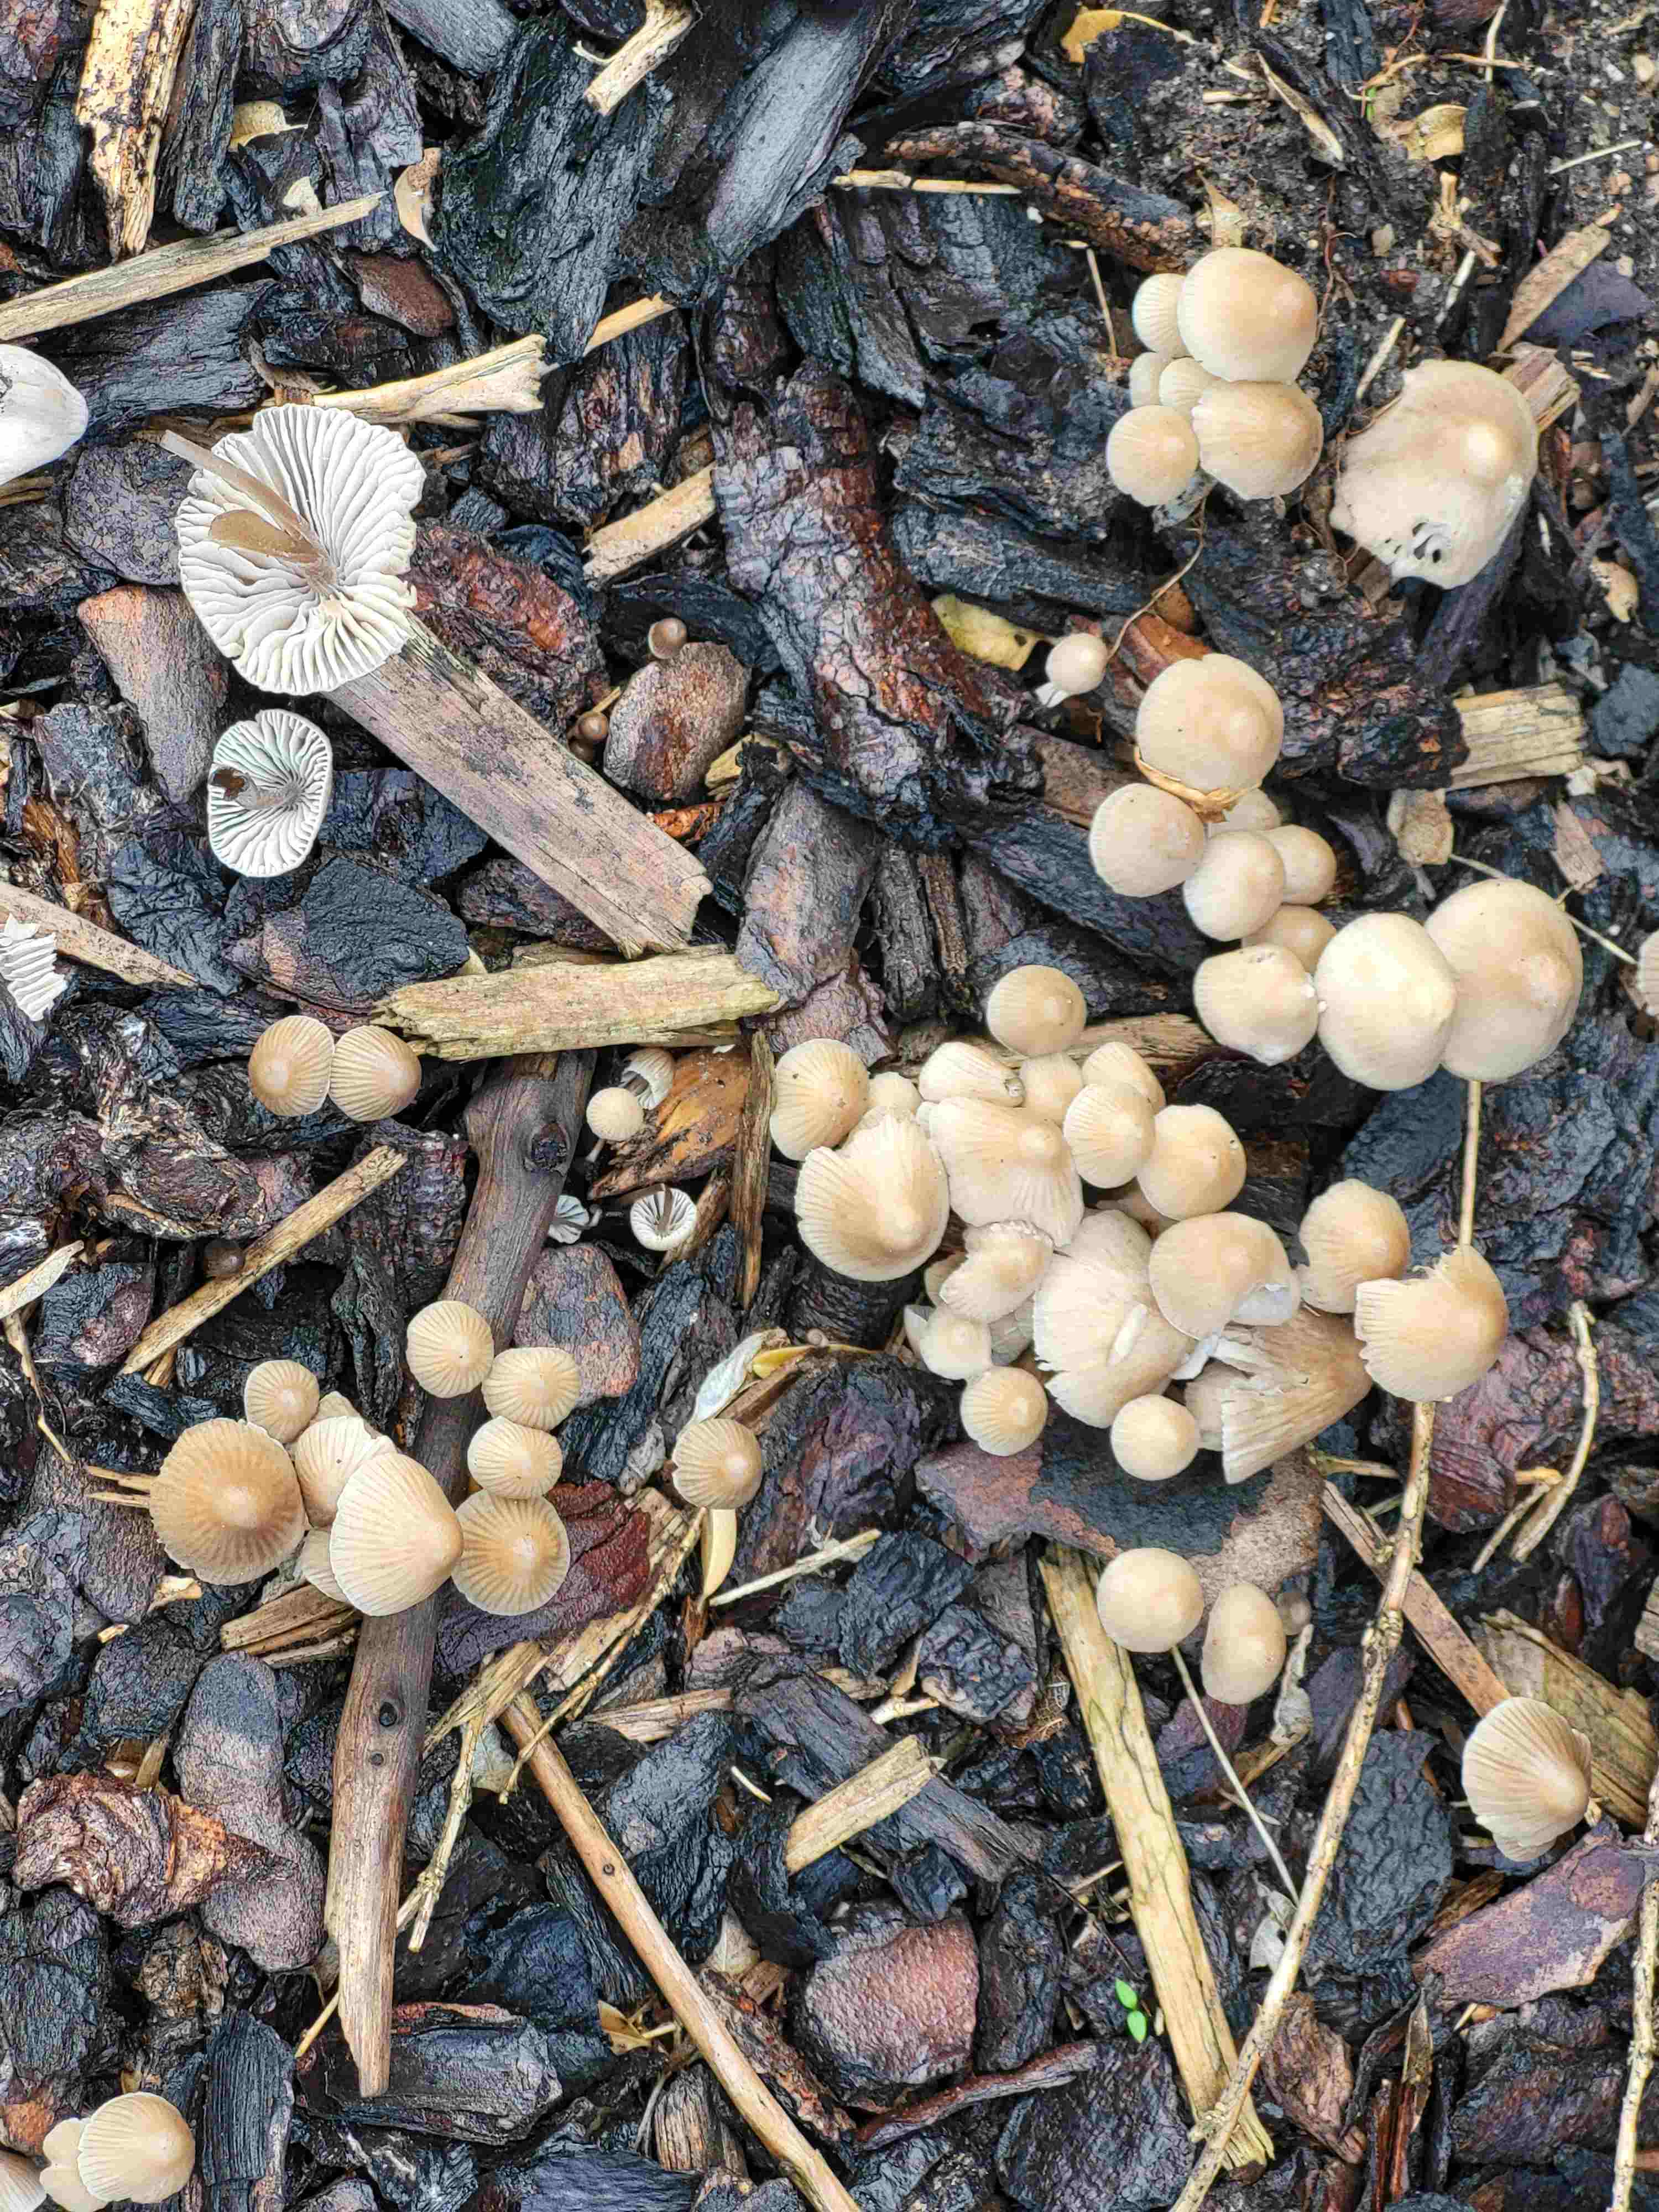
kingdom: Fungi
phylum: Basidiomycota
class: Agaricomycetes
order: Agaricales
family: Mycenaceae
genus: Mycena
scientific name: Mycena
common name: huesvamp
